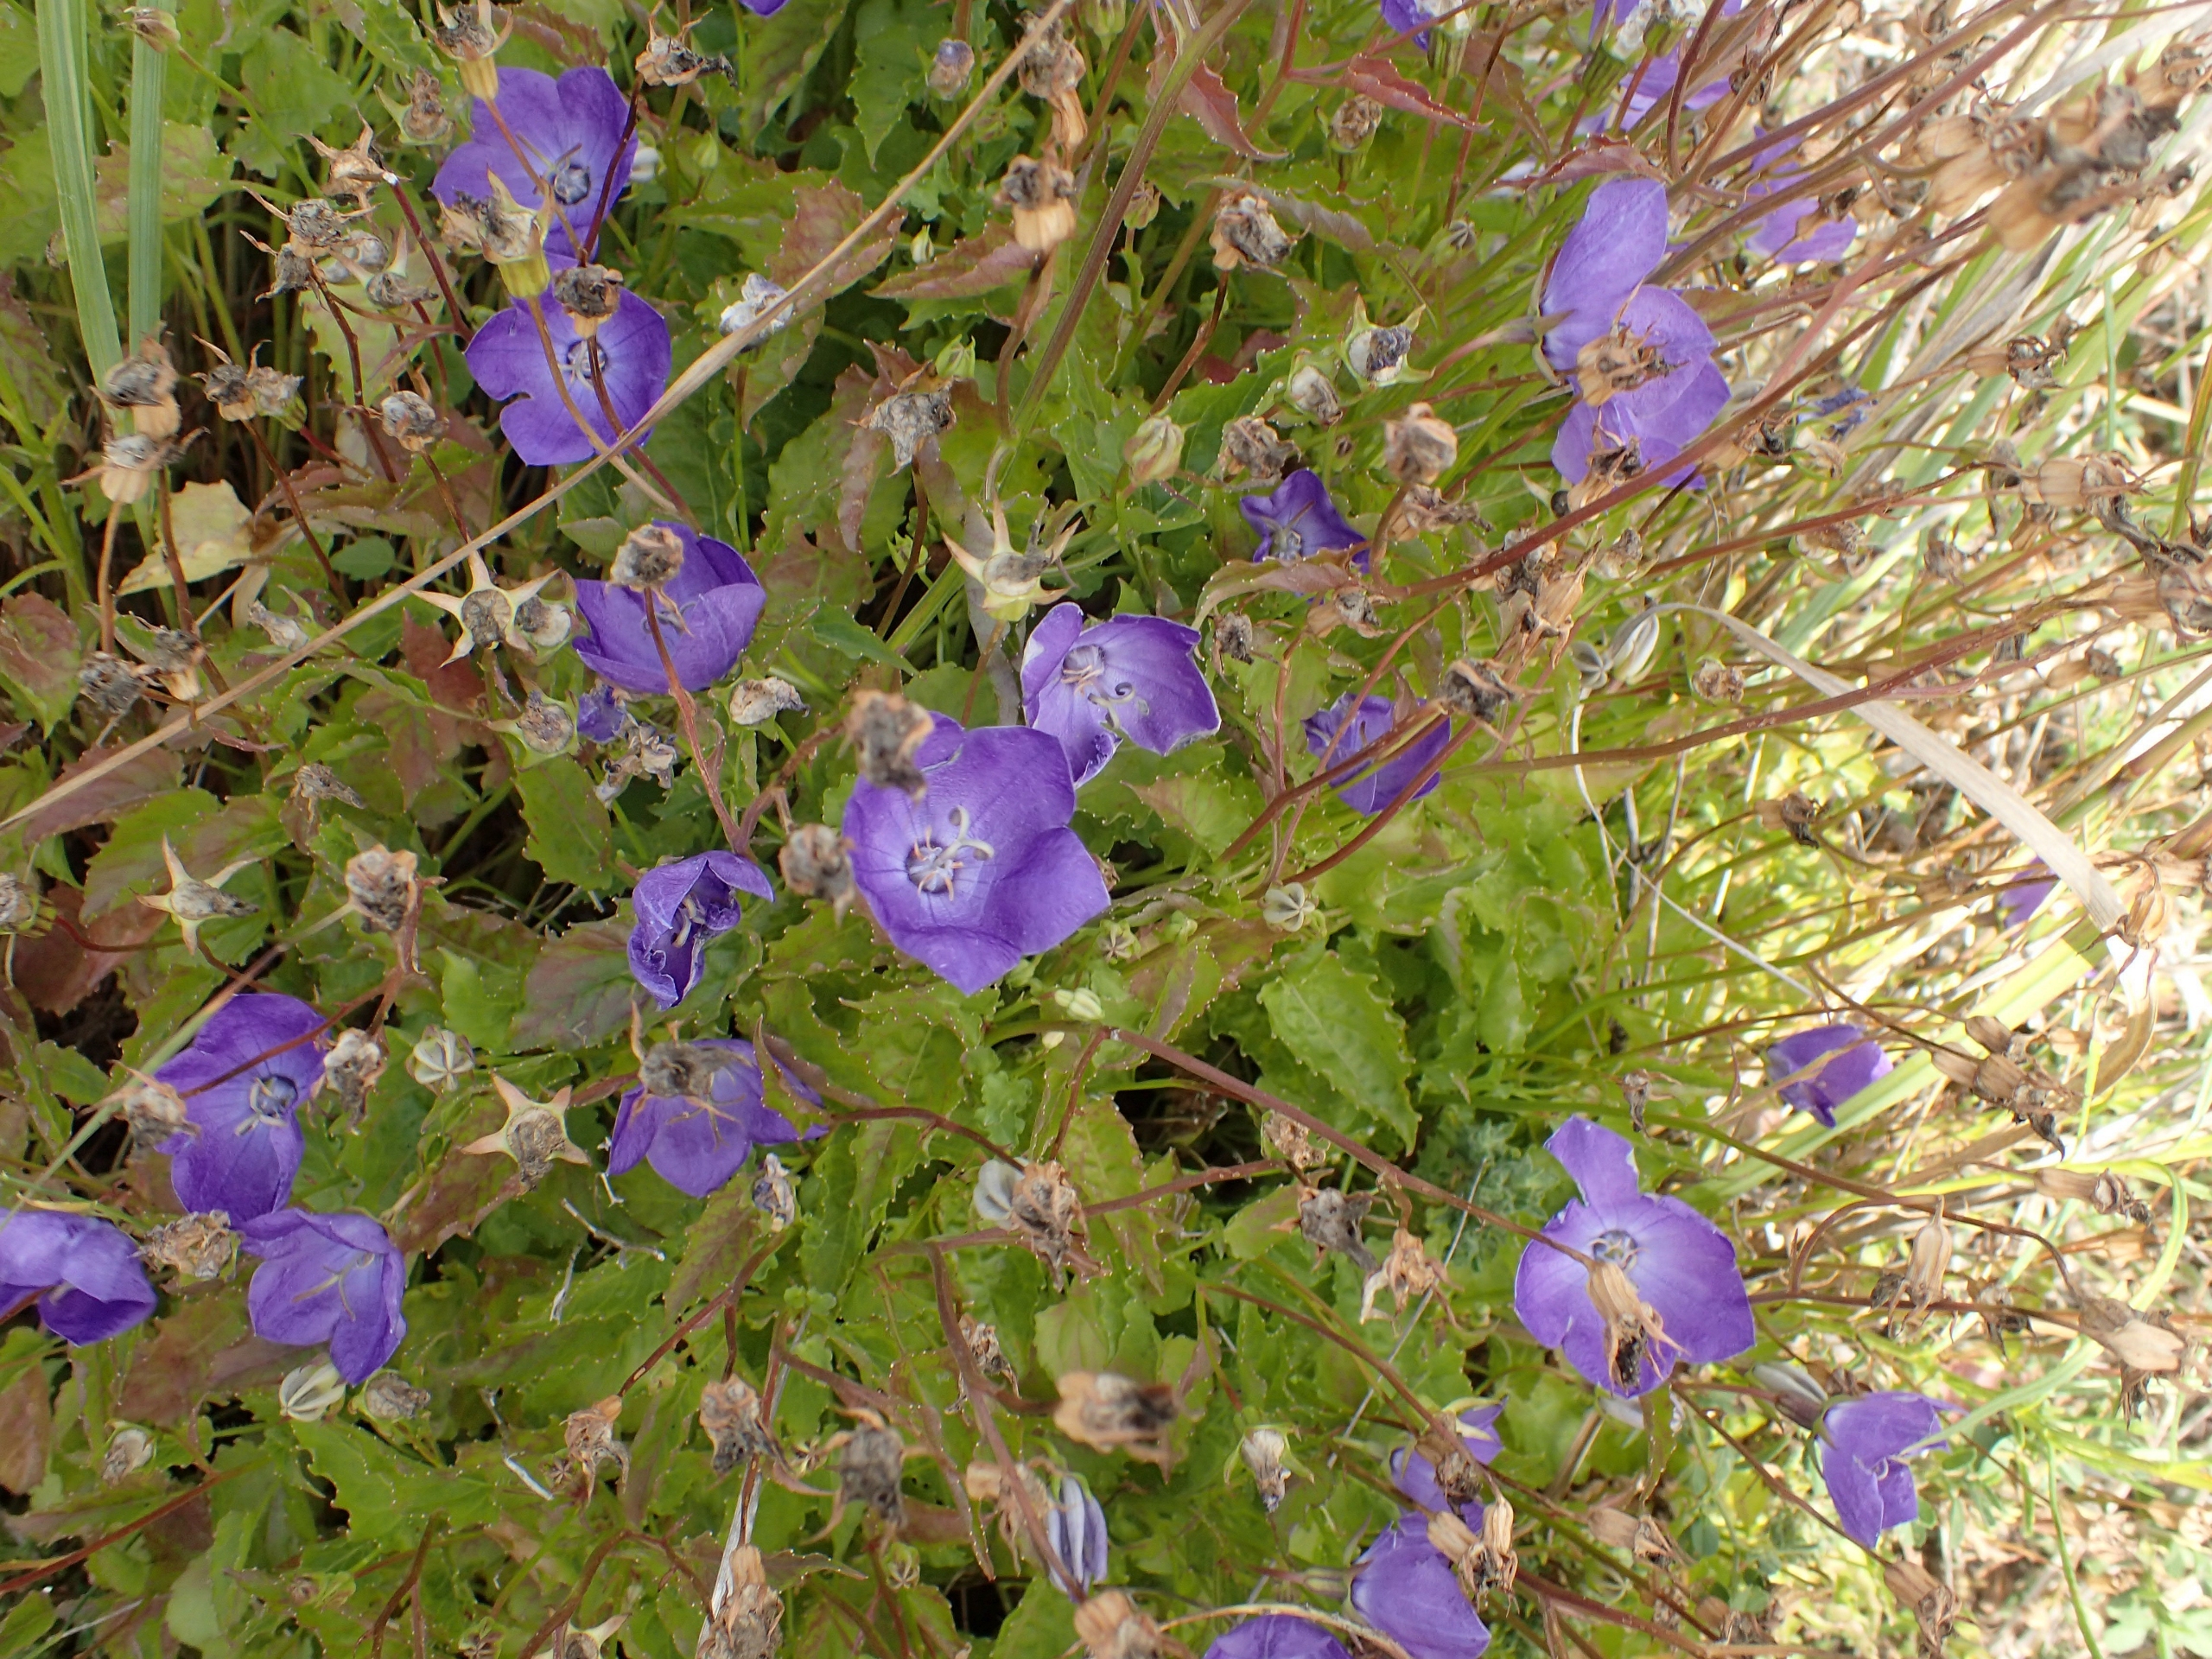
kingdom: Plantae
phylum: Tracheophyta
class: Magnoliopsida
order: Asterales
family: Campanulaceae
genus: Campanula
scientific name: Campanula carpatica
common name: Karpater-klokke
